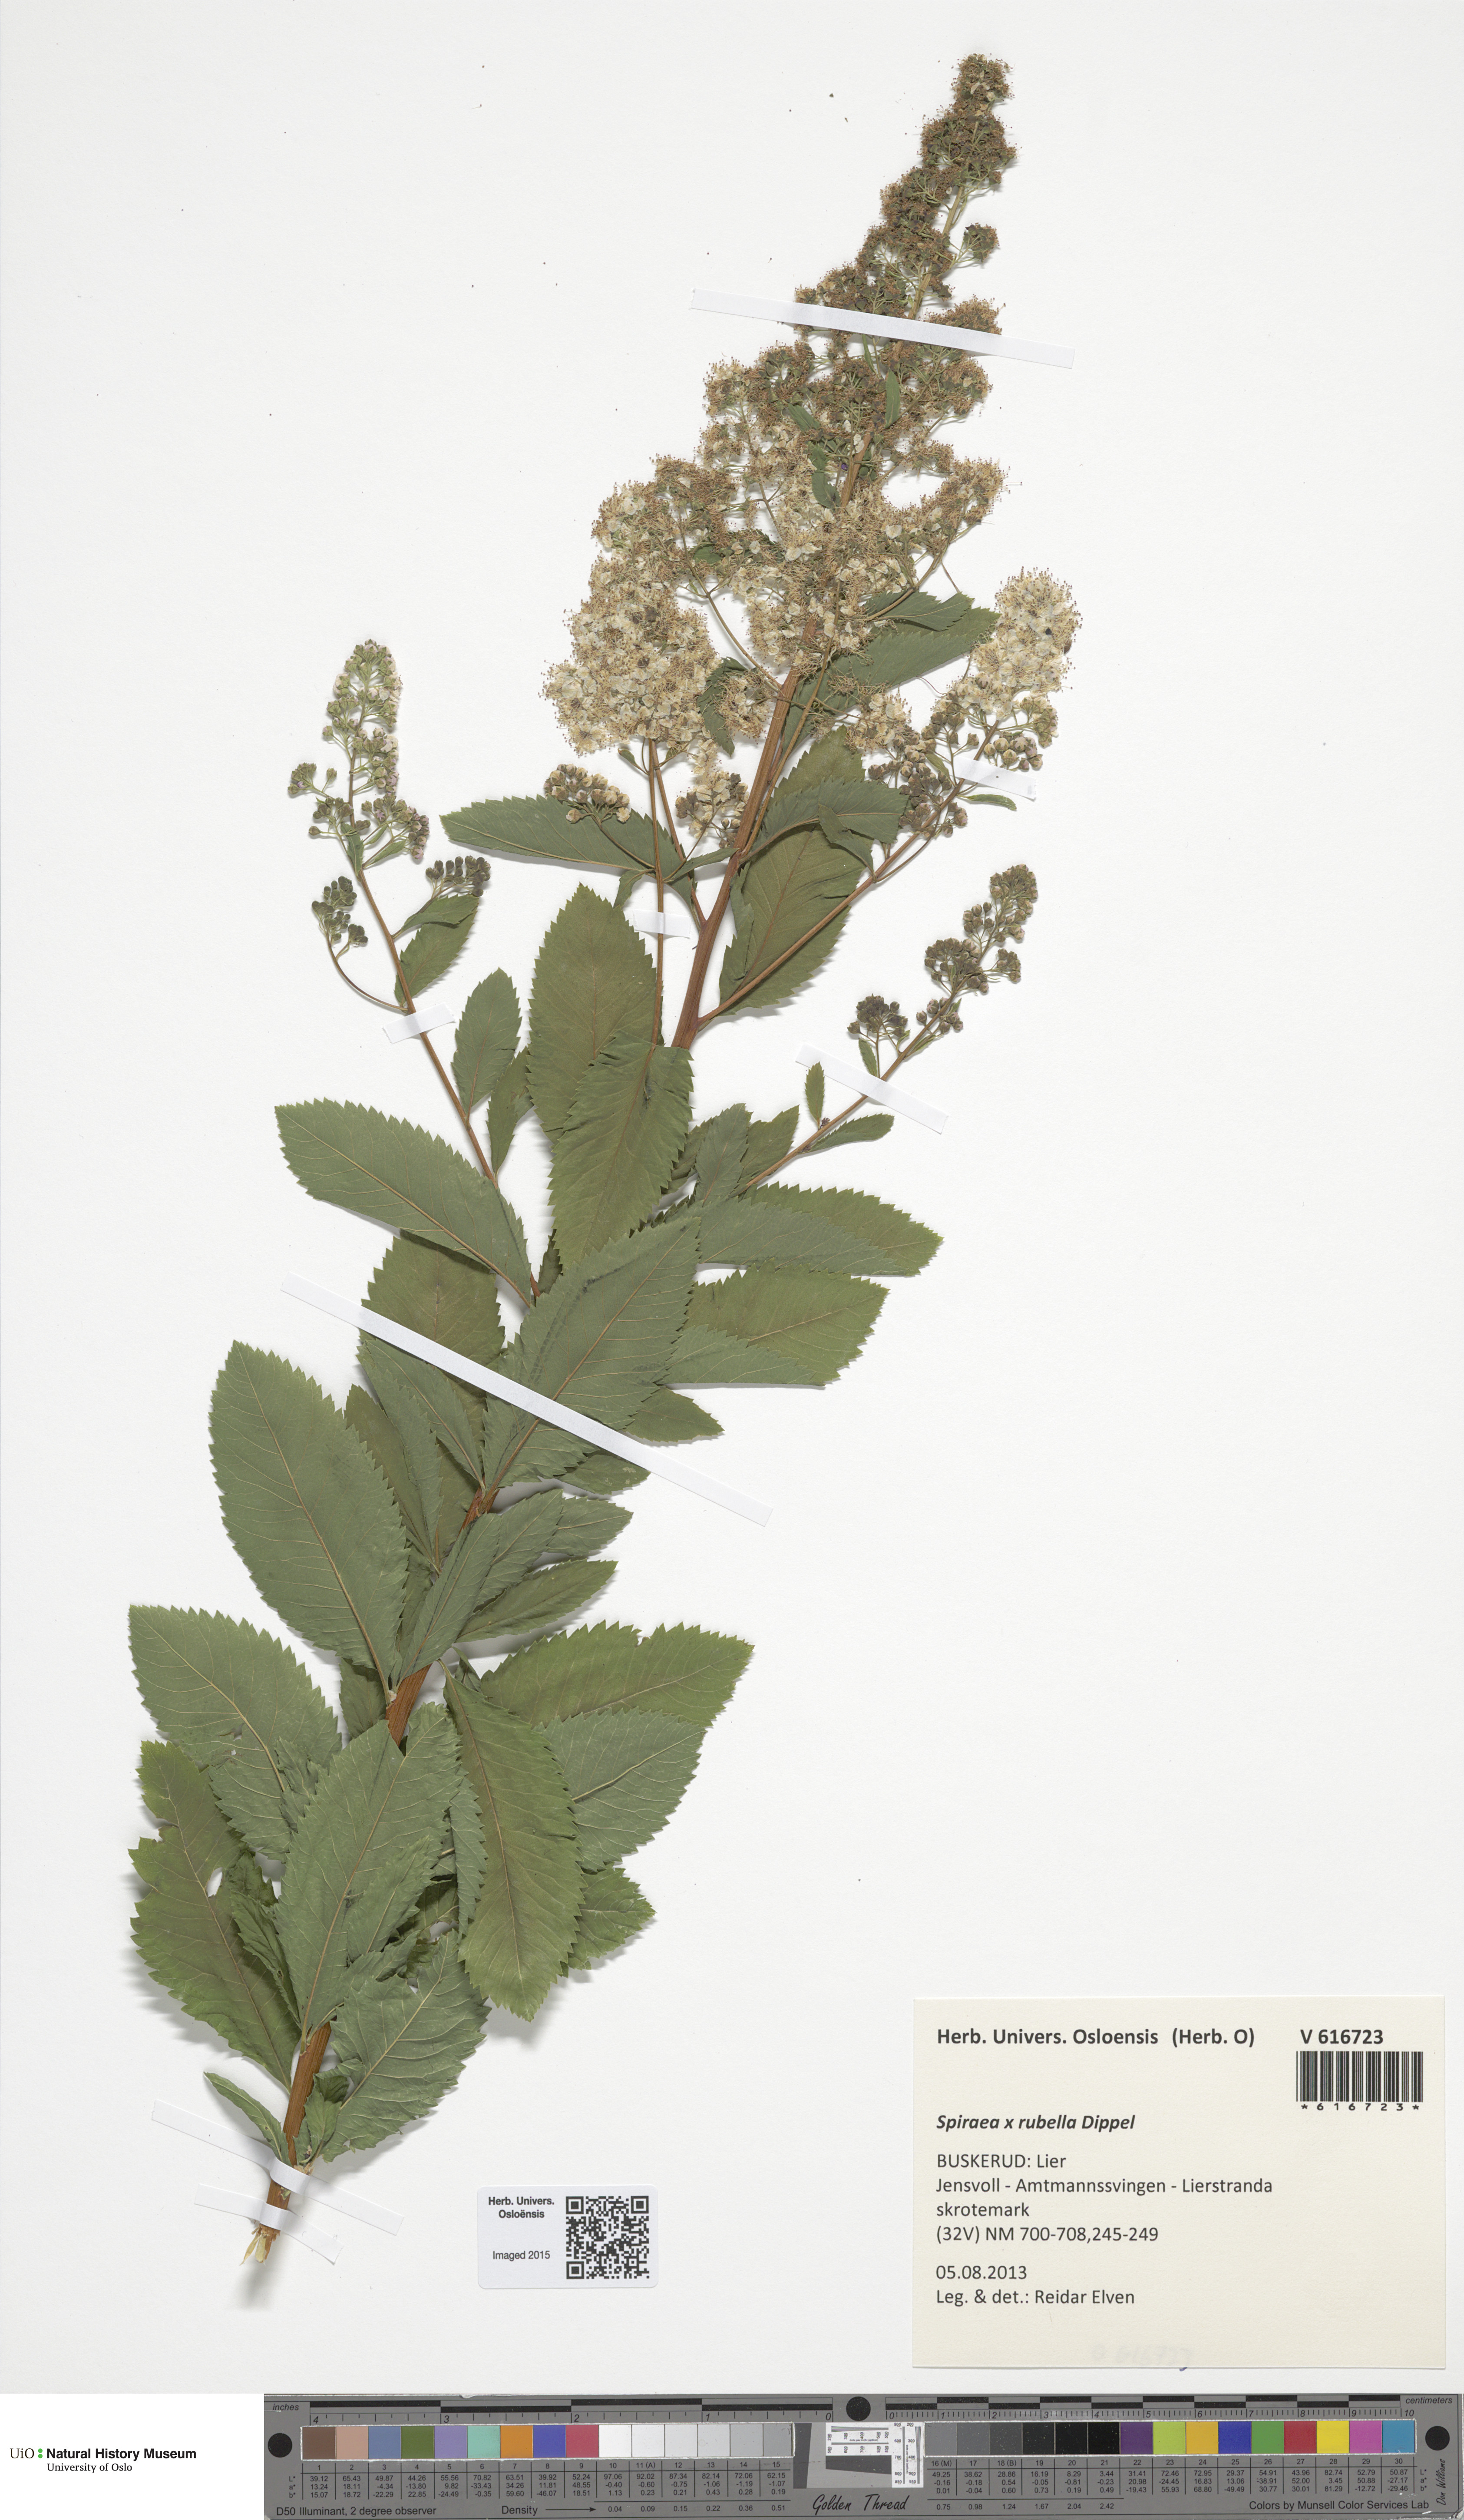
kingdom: Plantae
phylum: Tracheophyta
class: Magnoliopsida
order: Rosales
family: Rosaceae
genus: Spiraea
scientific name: Spiraea rosalba
